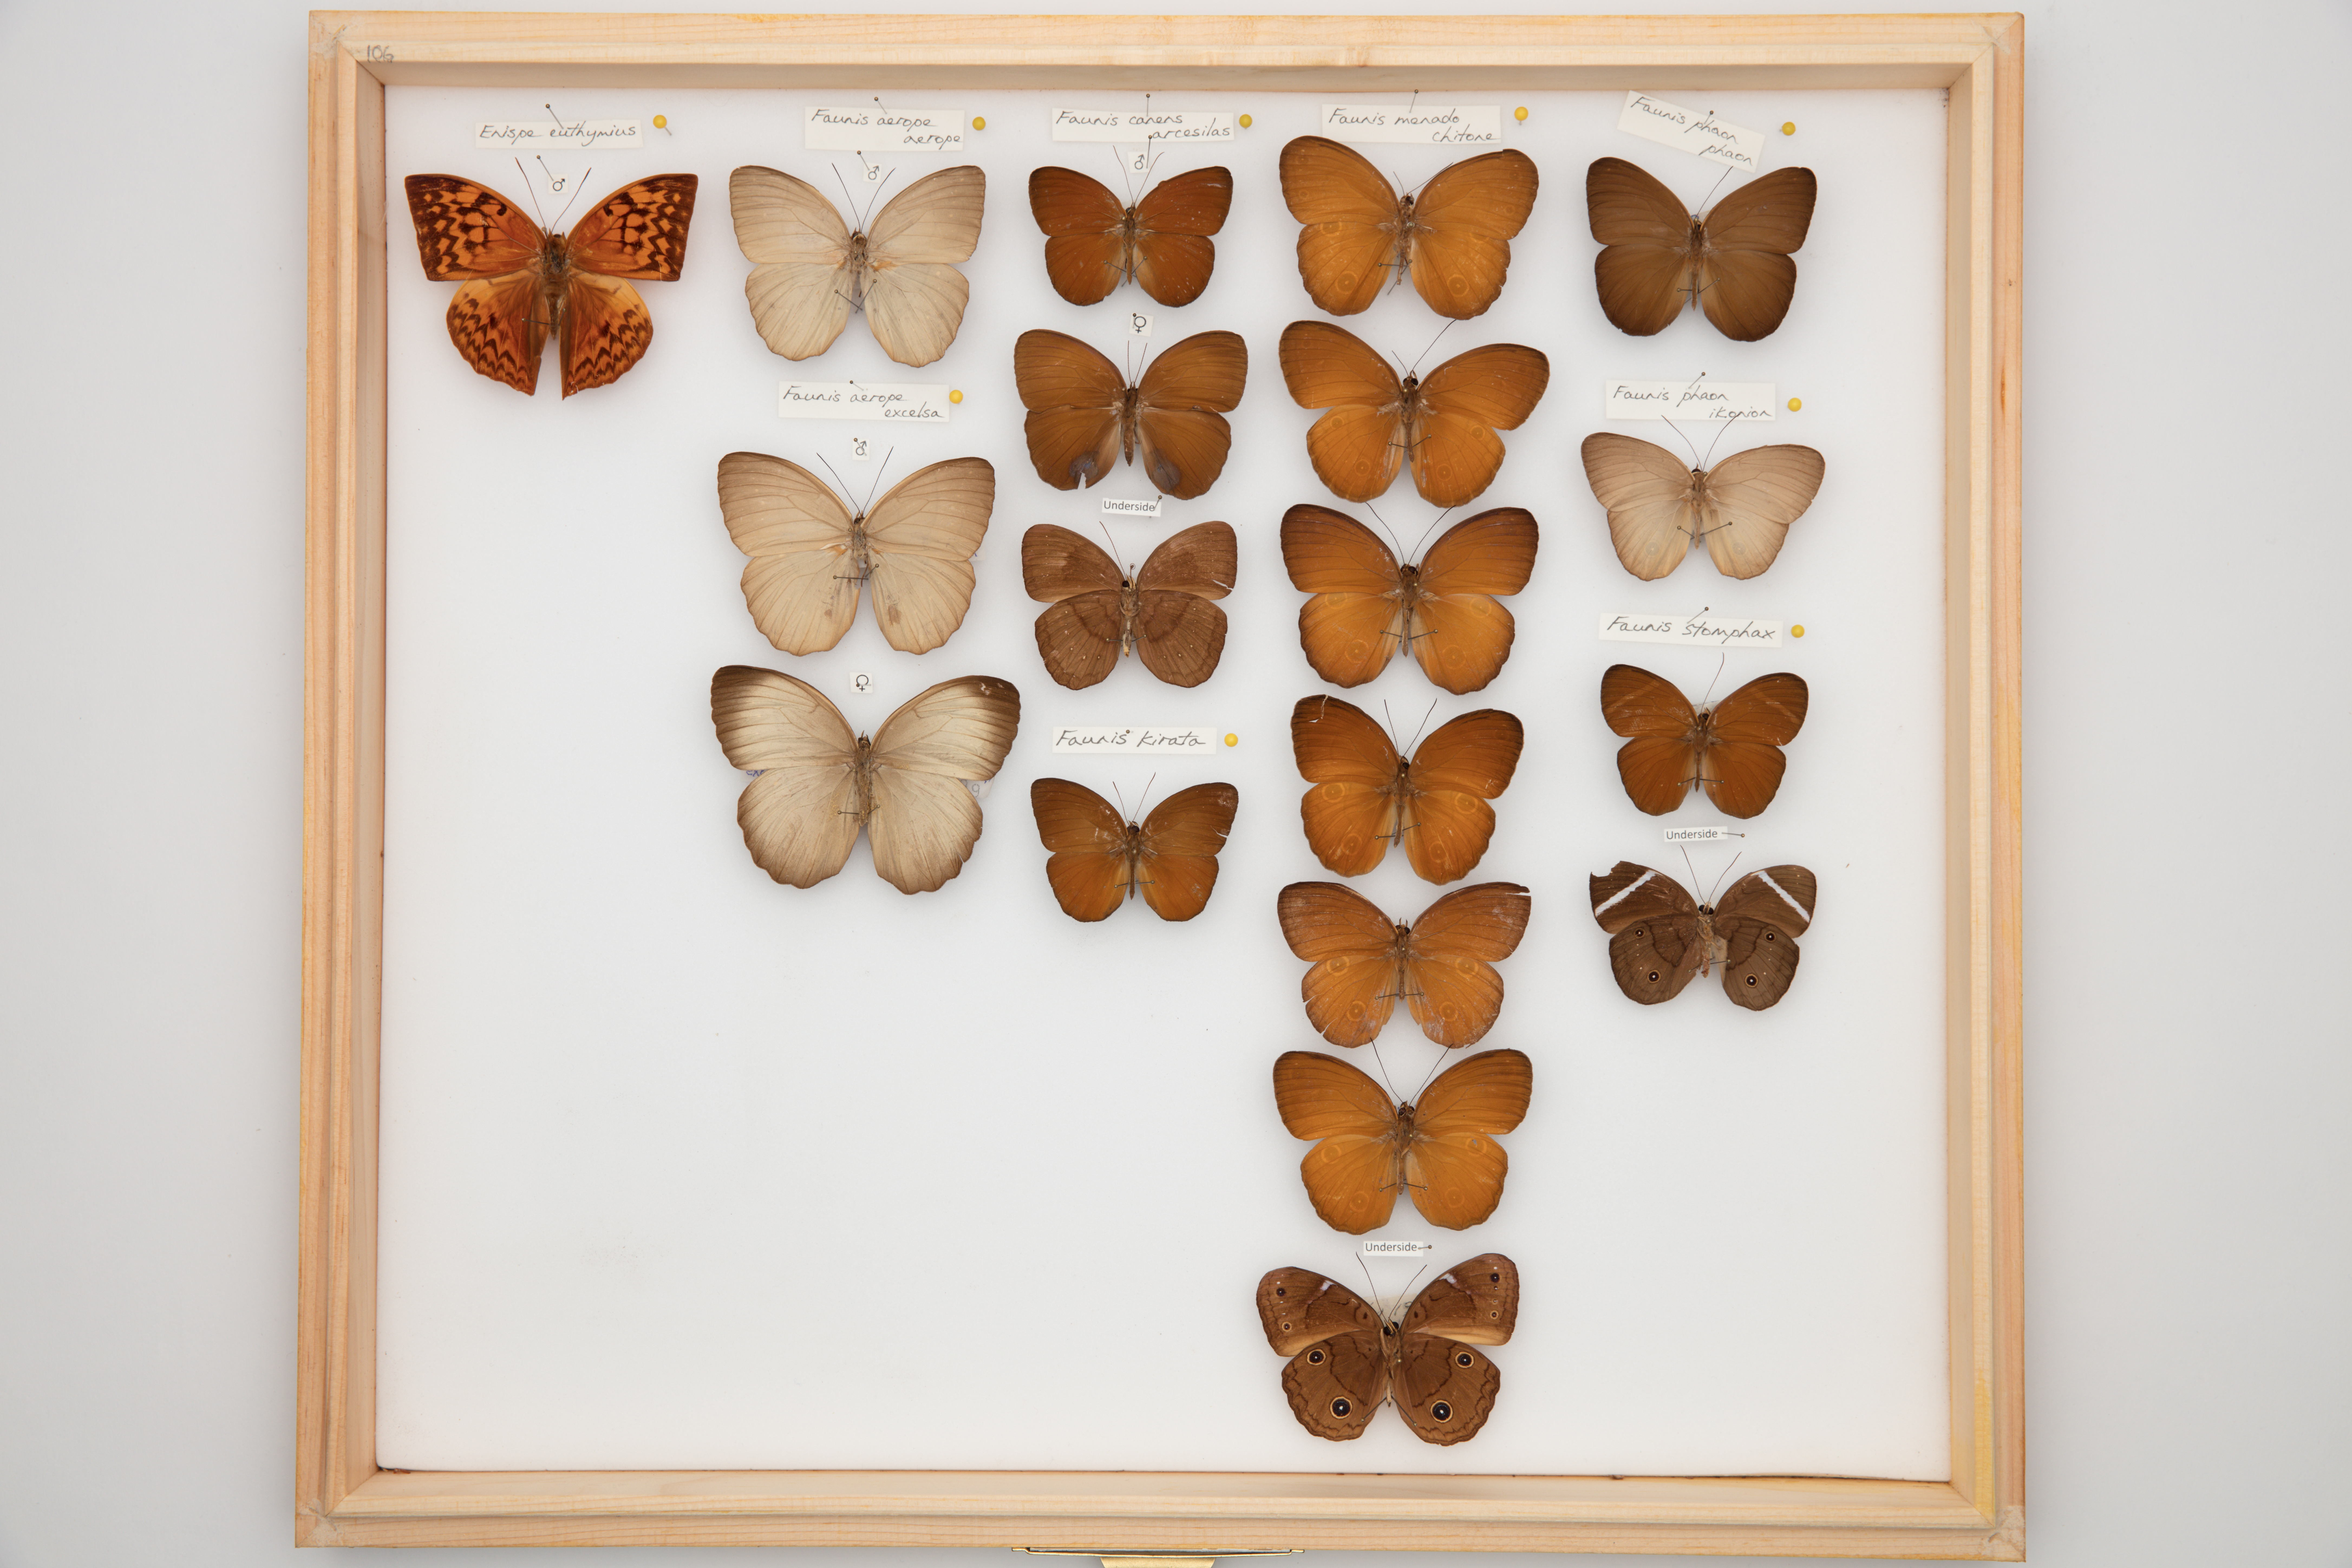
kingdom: Animalia
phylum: Arthropoda
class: Insecta
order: Lepidoptera
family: Nymphalidae
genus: Faunis
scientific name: Faunis menado
